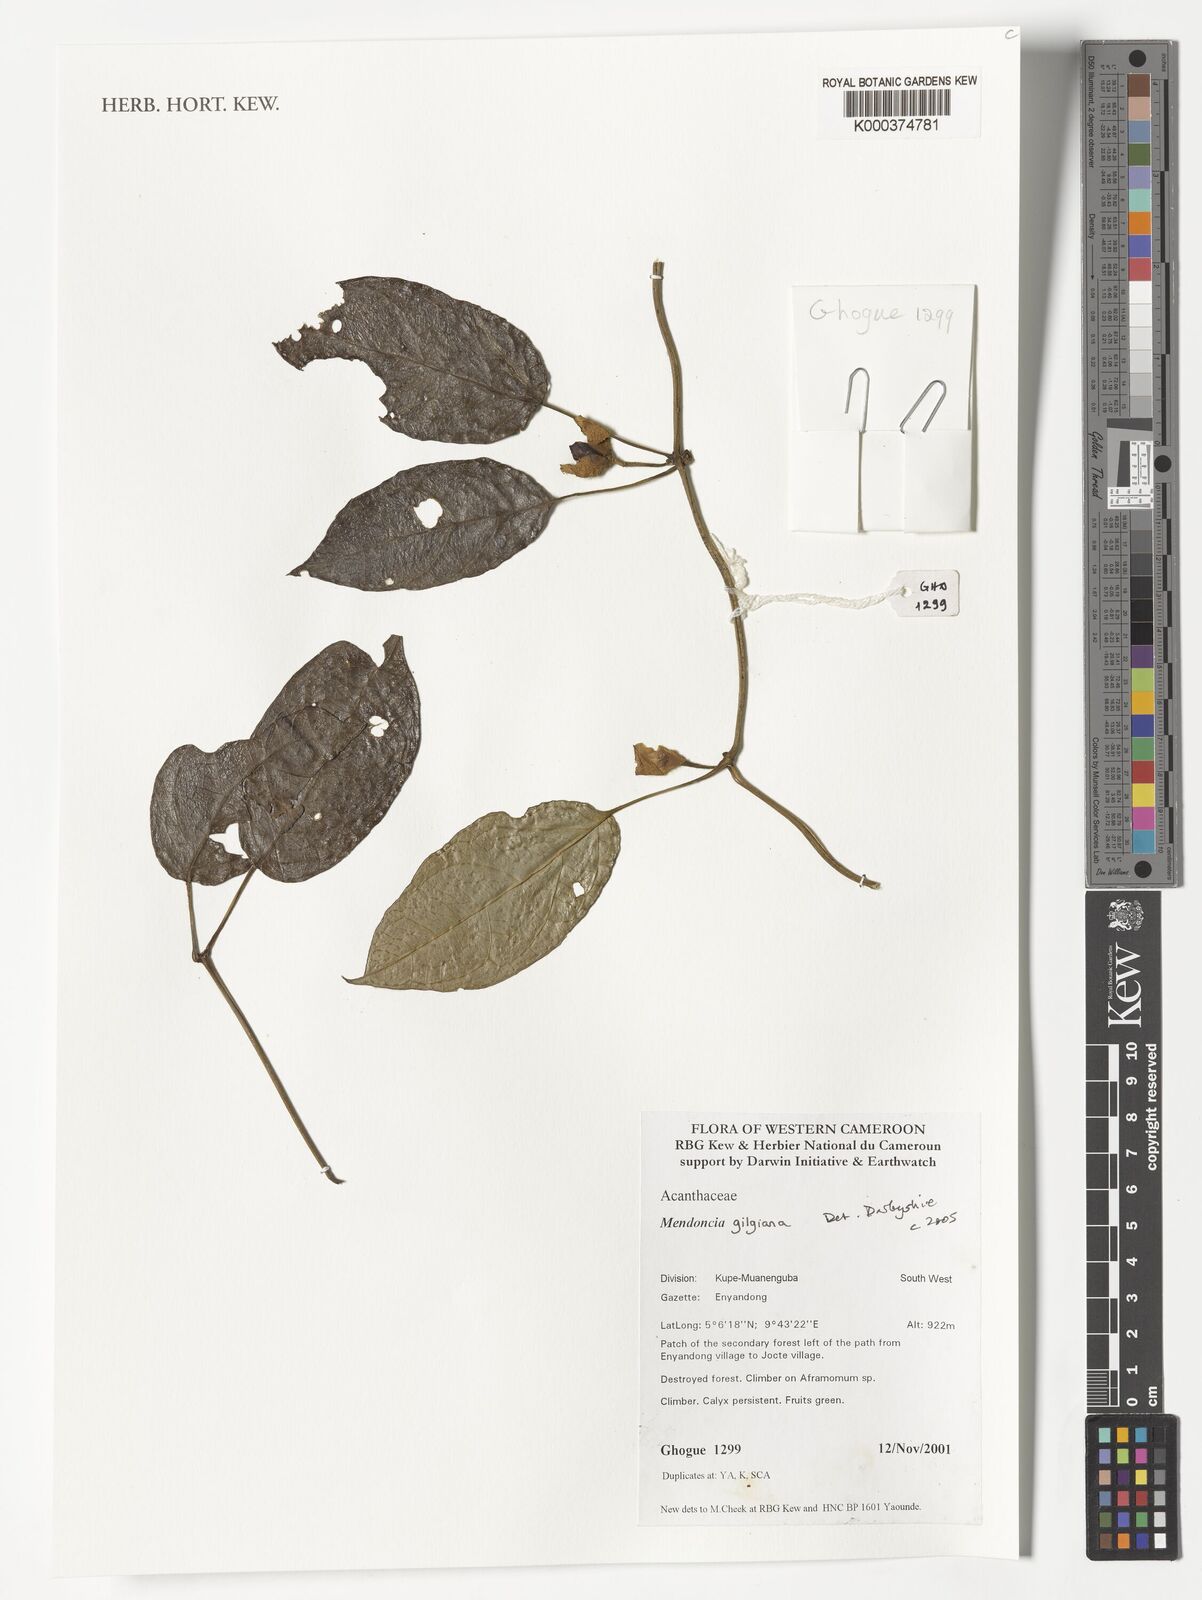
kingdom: Plantae
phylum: Tracheophyta
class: Magnoliopsida
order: Lamiales
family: Acanthaceae
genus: Mendoncia
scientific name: Mendoncia gilgiana
